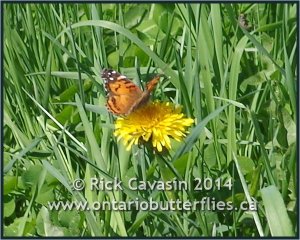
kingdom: Animalia
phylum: Arthropoda
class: Insecta
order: Lepidoptera
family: Nymphalidae
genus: Vanessa
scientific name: Vanessa virginiensis
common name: American Lady
